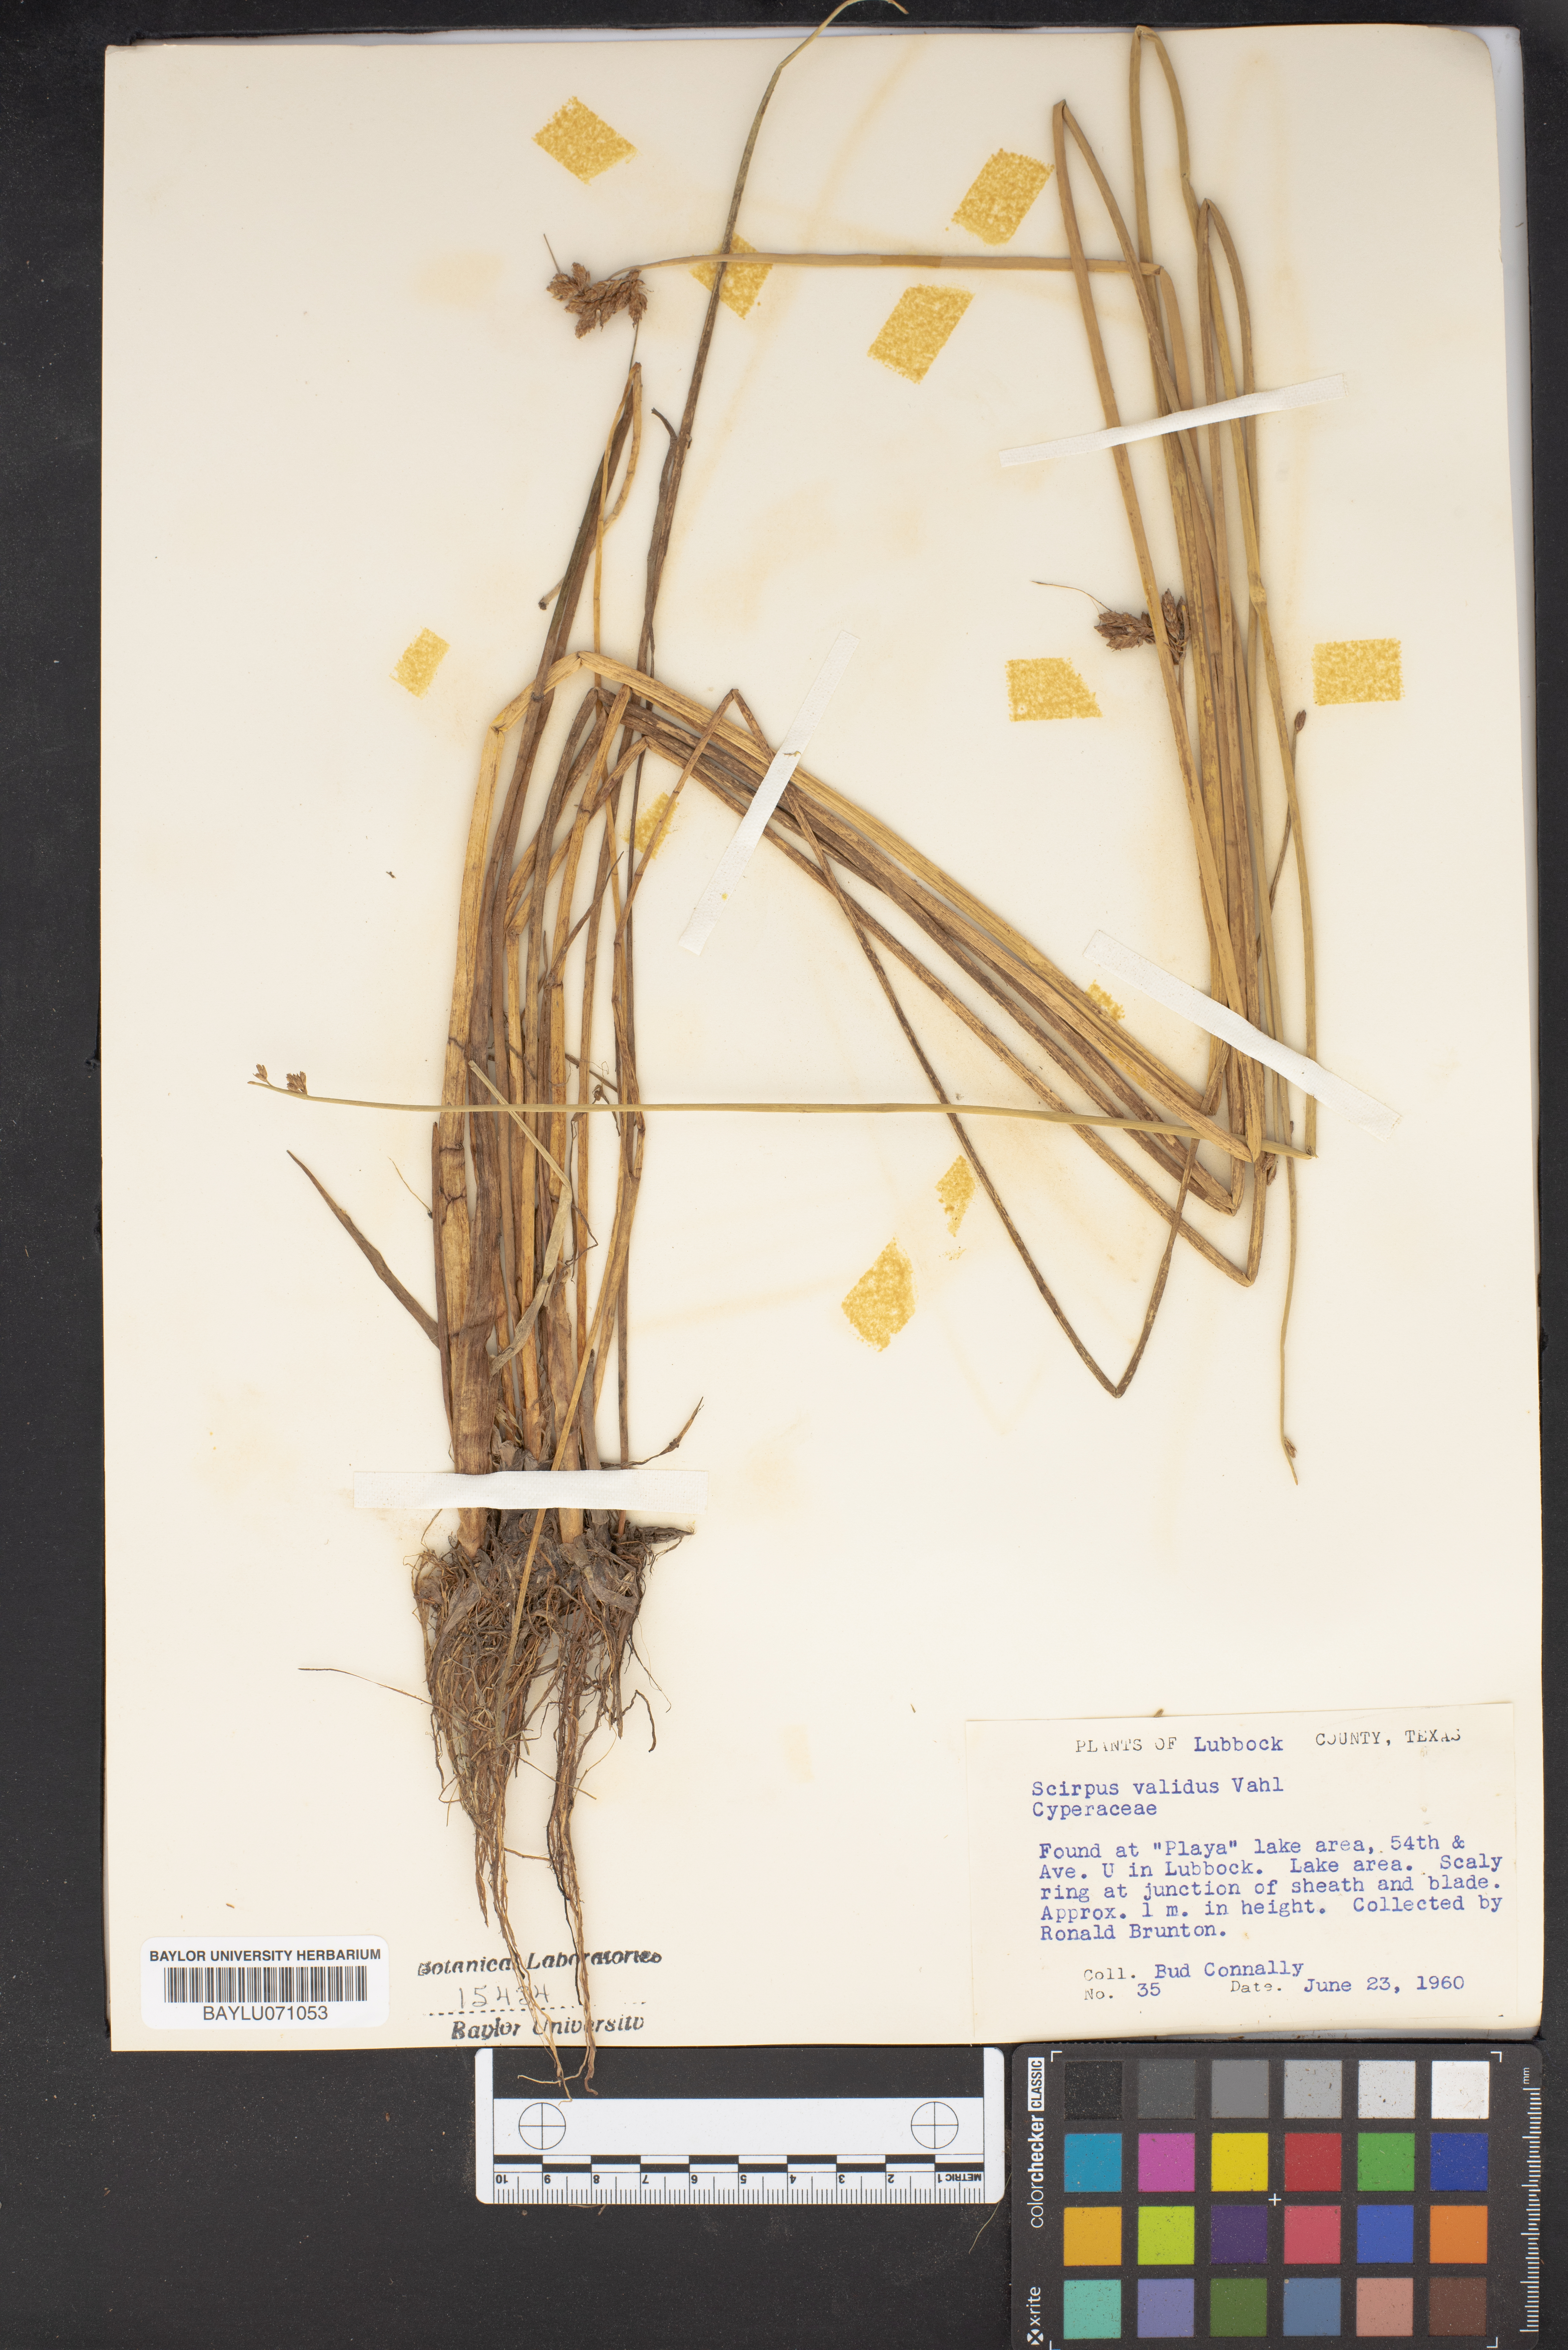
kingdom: Plantae
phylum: Tracheophyta
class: Liliopsida
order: Poales
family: Cyperaceae
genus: Schoenoplectus
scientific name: Schoenoplectus tabernaemontani
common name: Grey club-rush
